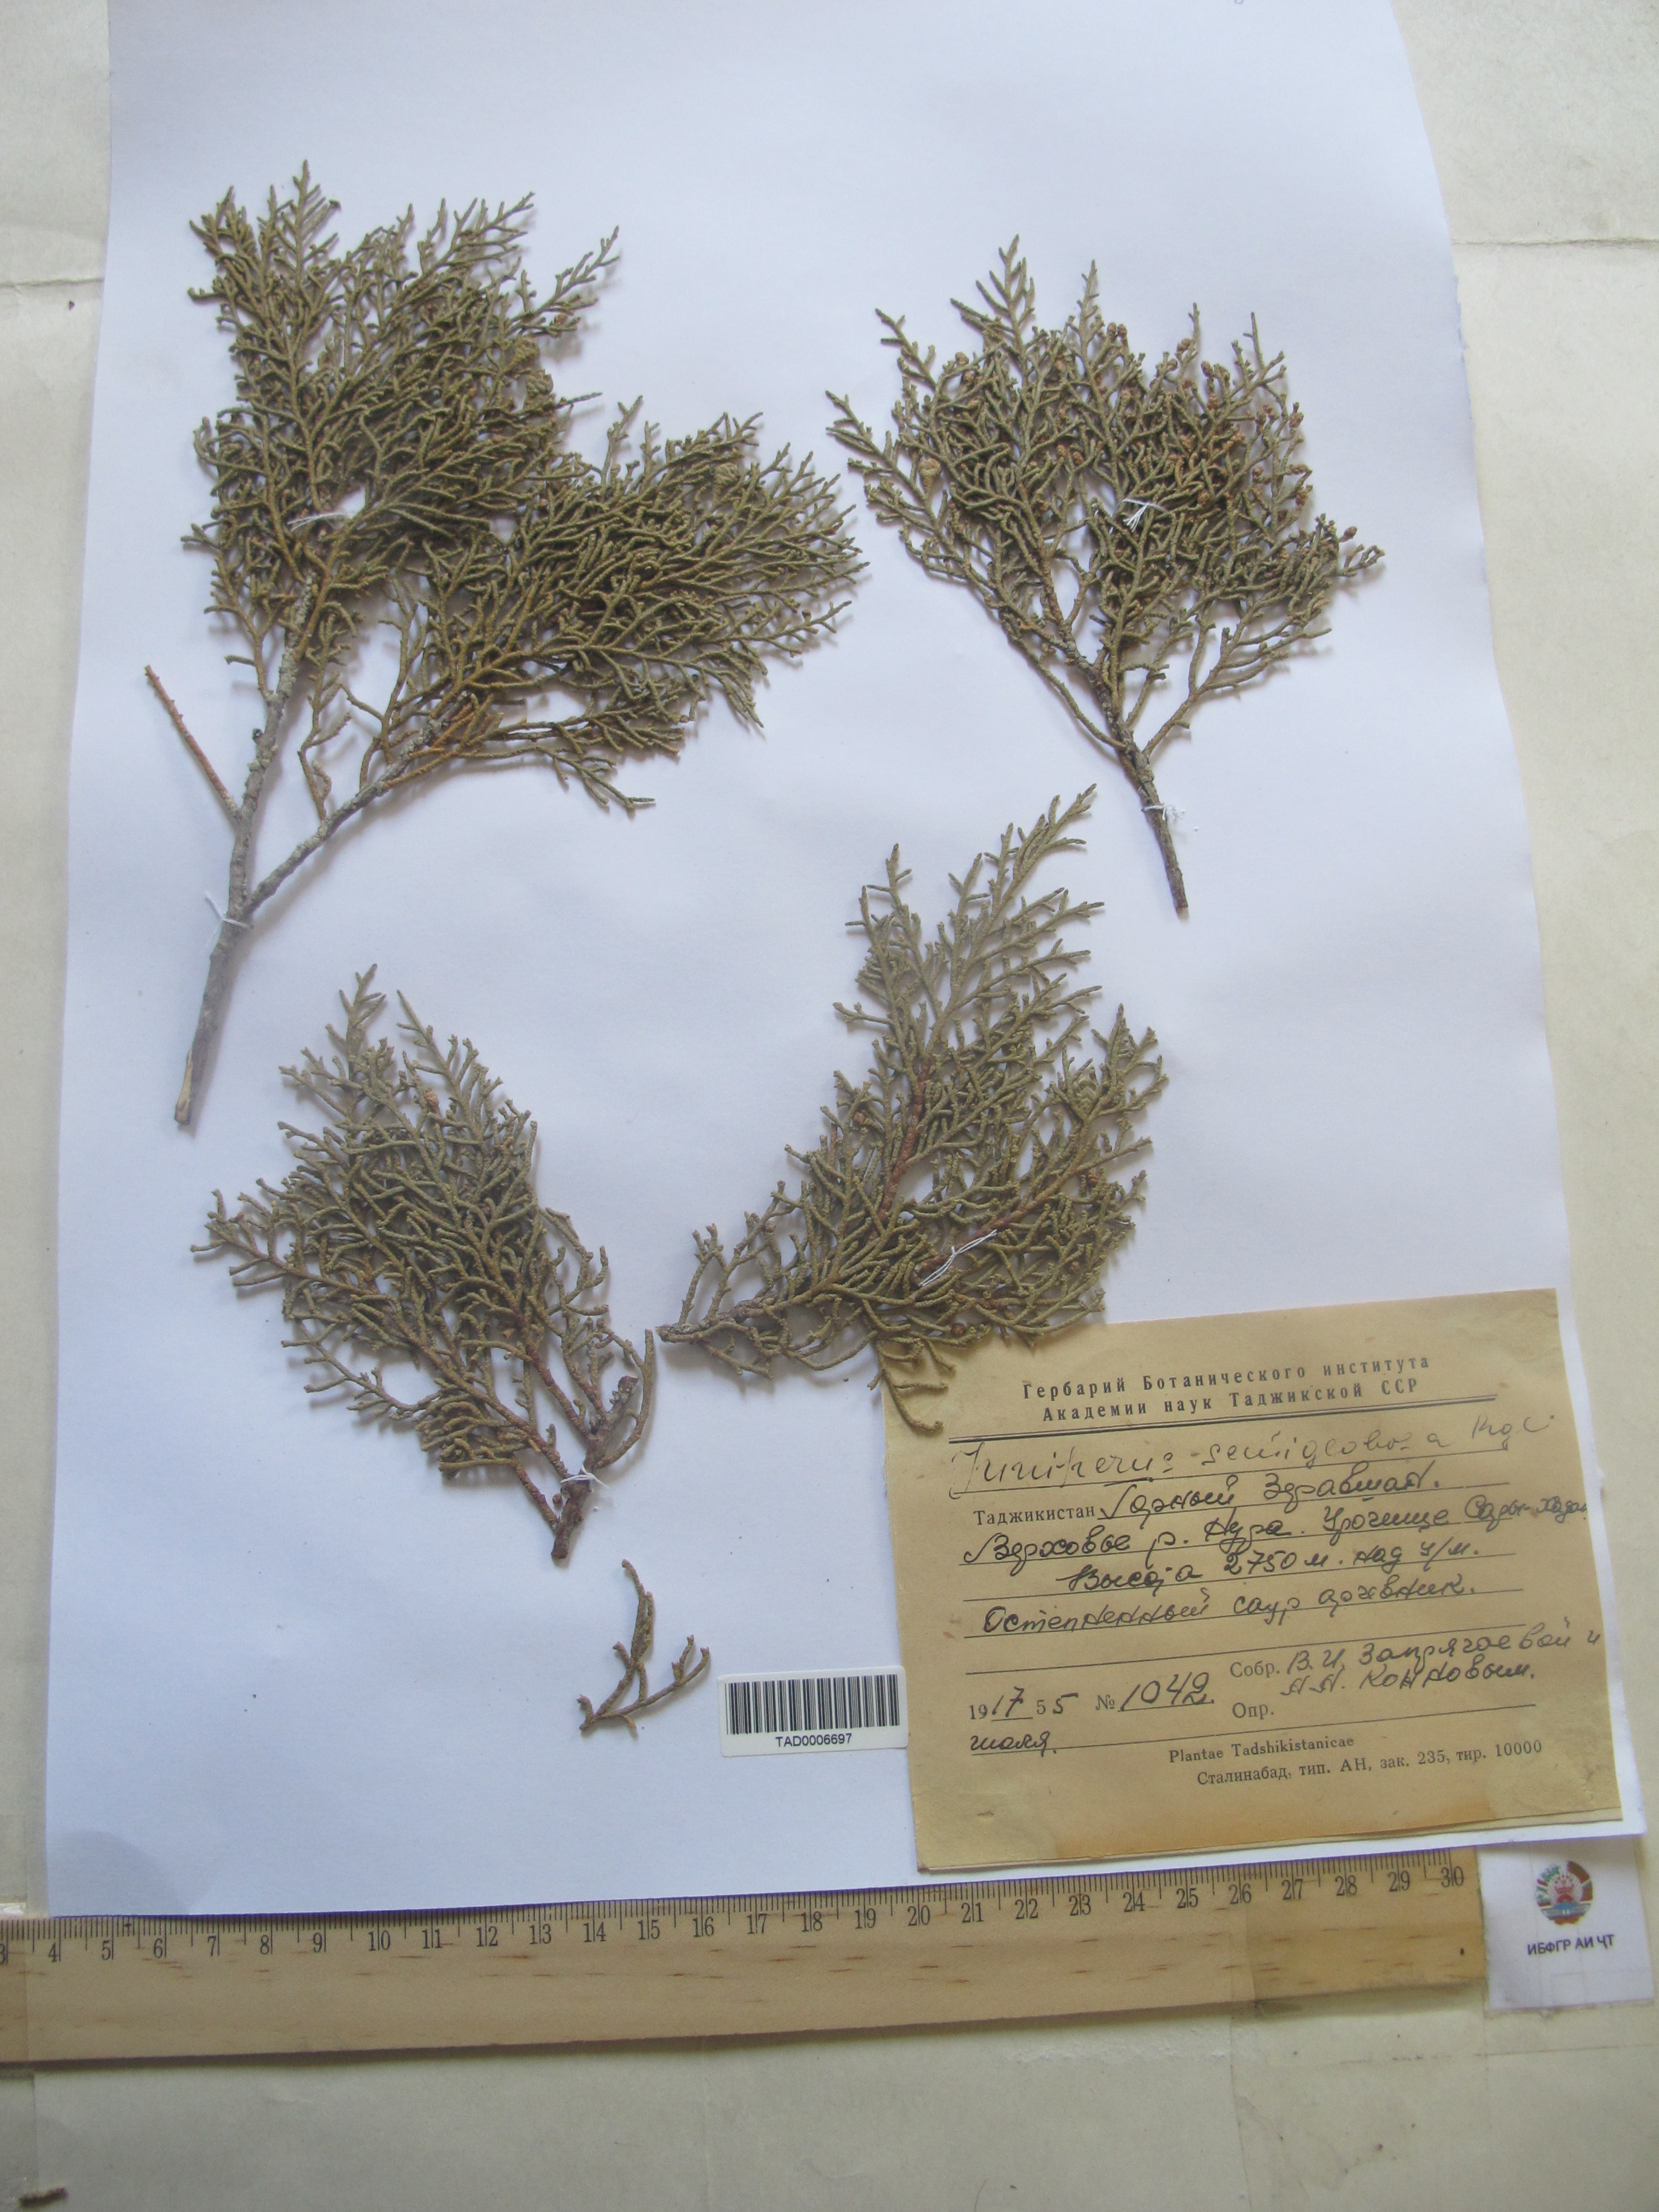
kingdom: Plantae
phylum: Tracheophyta
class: Pinopsida
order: Pinales
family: Cupressaceae
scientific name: Cupressaceae
